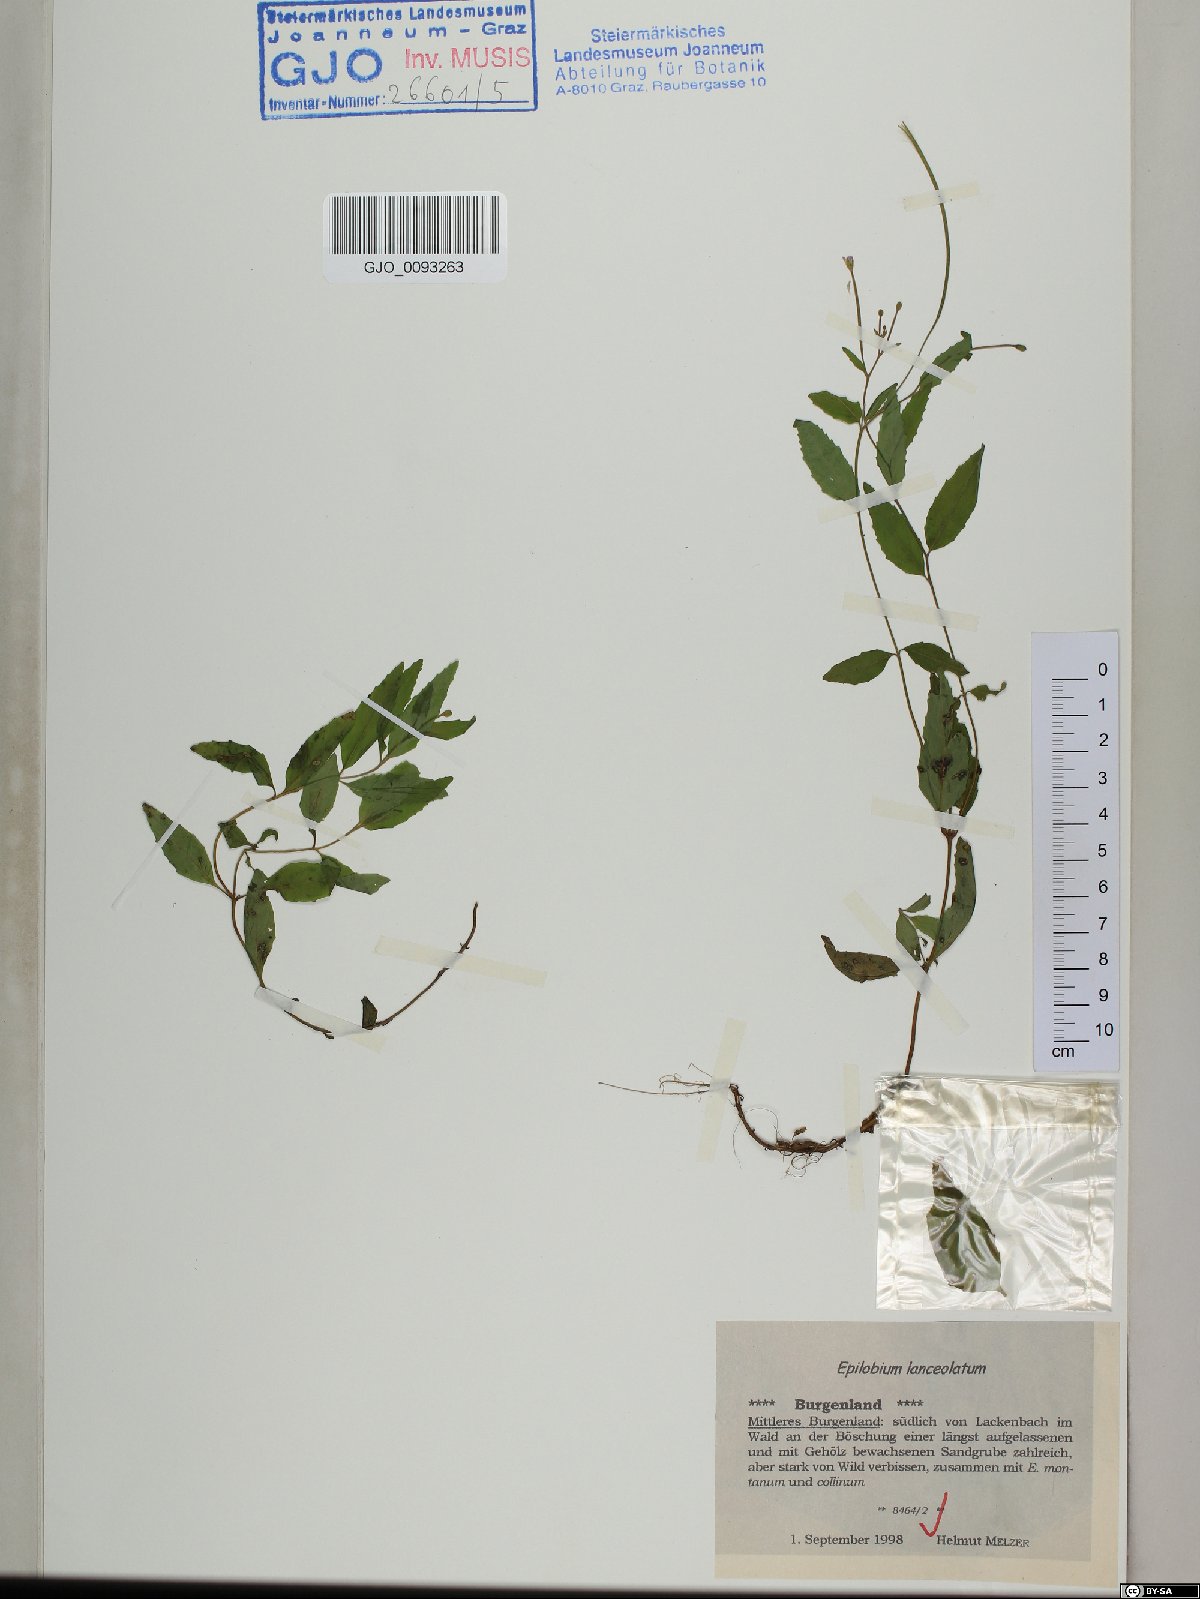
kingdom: Plantae
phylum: Tracheophyta
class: Magnoliopsida
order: Myrtales
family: Onagraceae
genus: Epilobium
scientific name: Epilobium lanceolatum
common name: Spear-leaved willowherb
